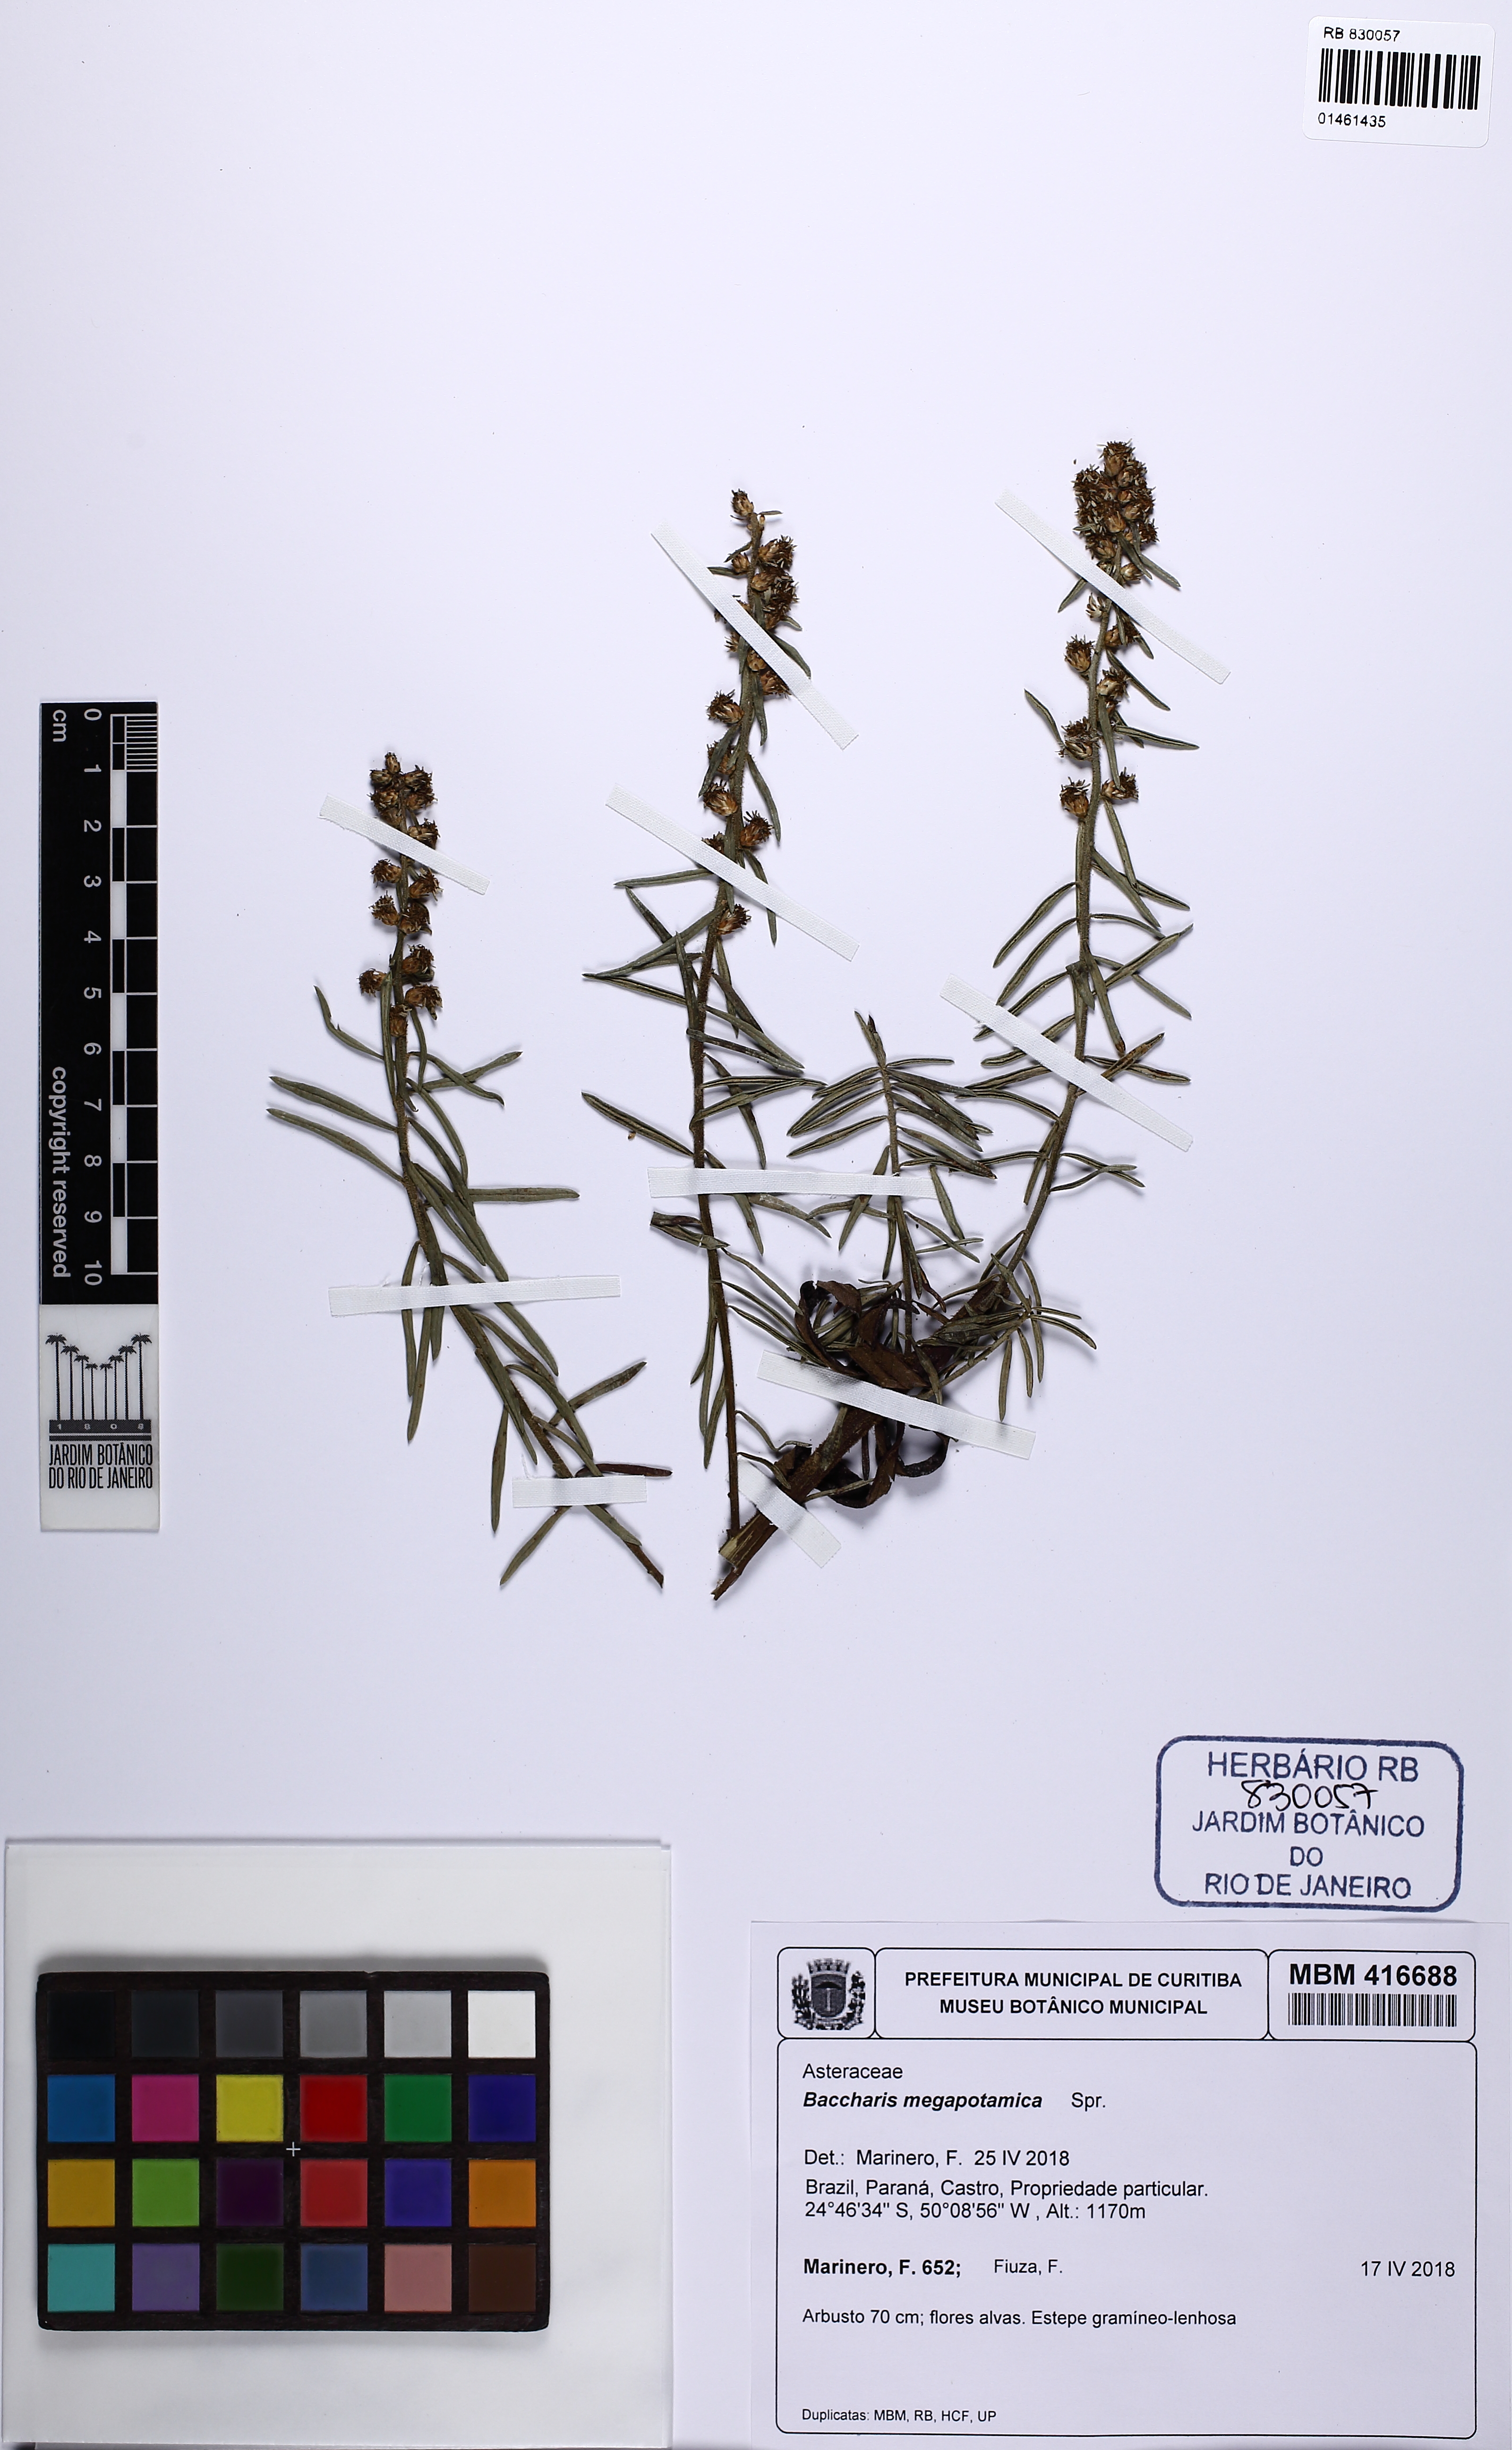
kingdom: Plantae
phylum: Tracheophyta
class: Magnoliopsida
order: Asterales
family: Asteraceae
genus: Baccharis
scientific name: Baccharis megapotamica
